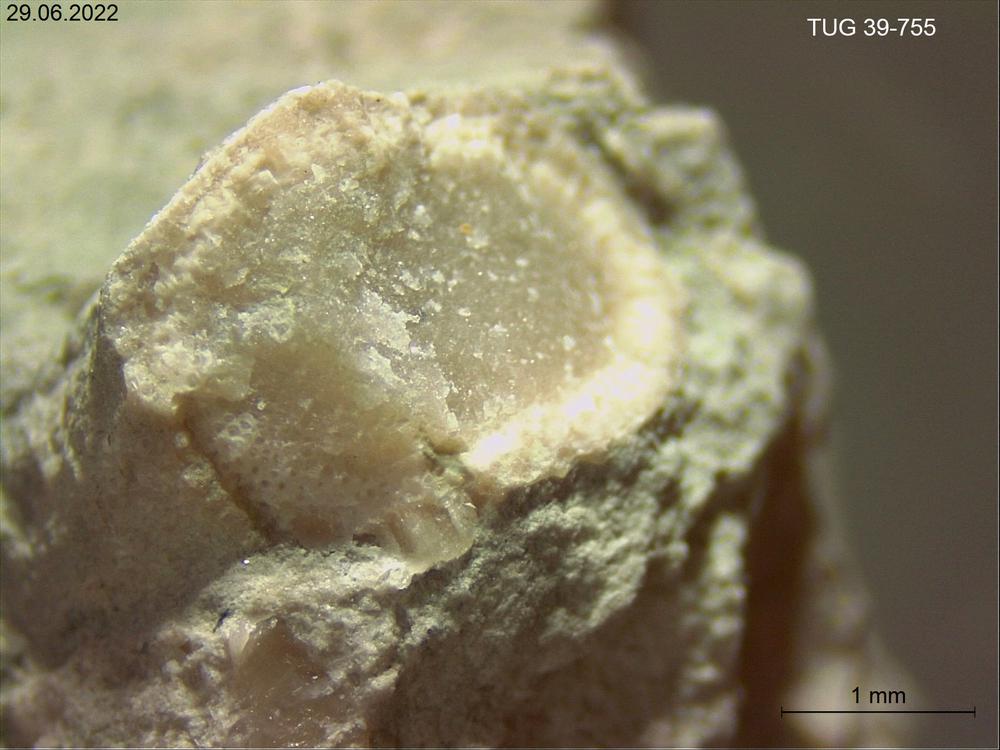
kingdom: Animalia
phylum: Bryozoa
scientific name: Bryozoa
